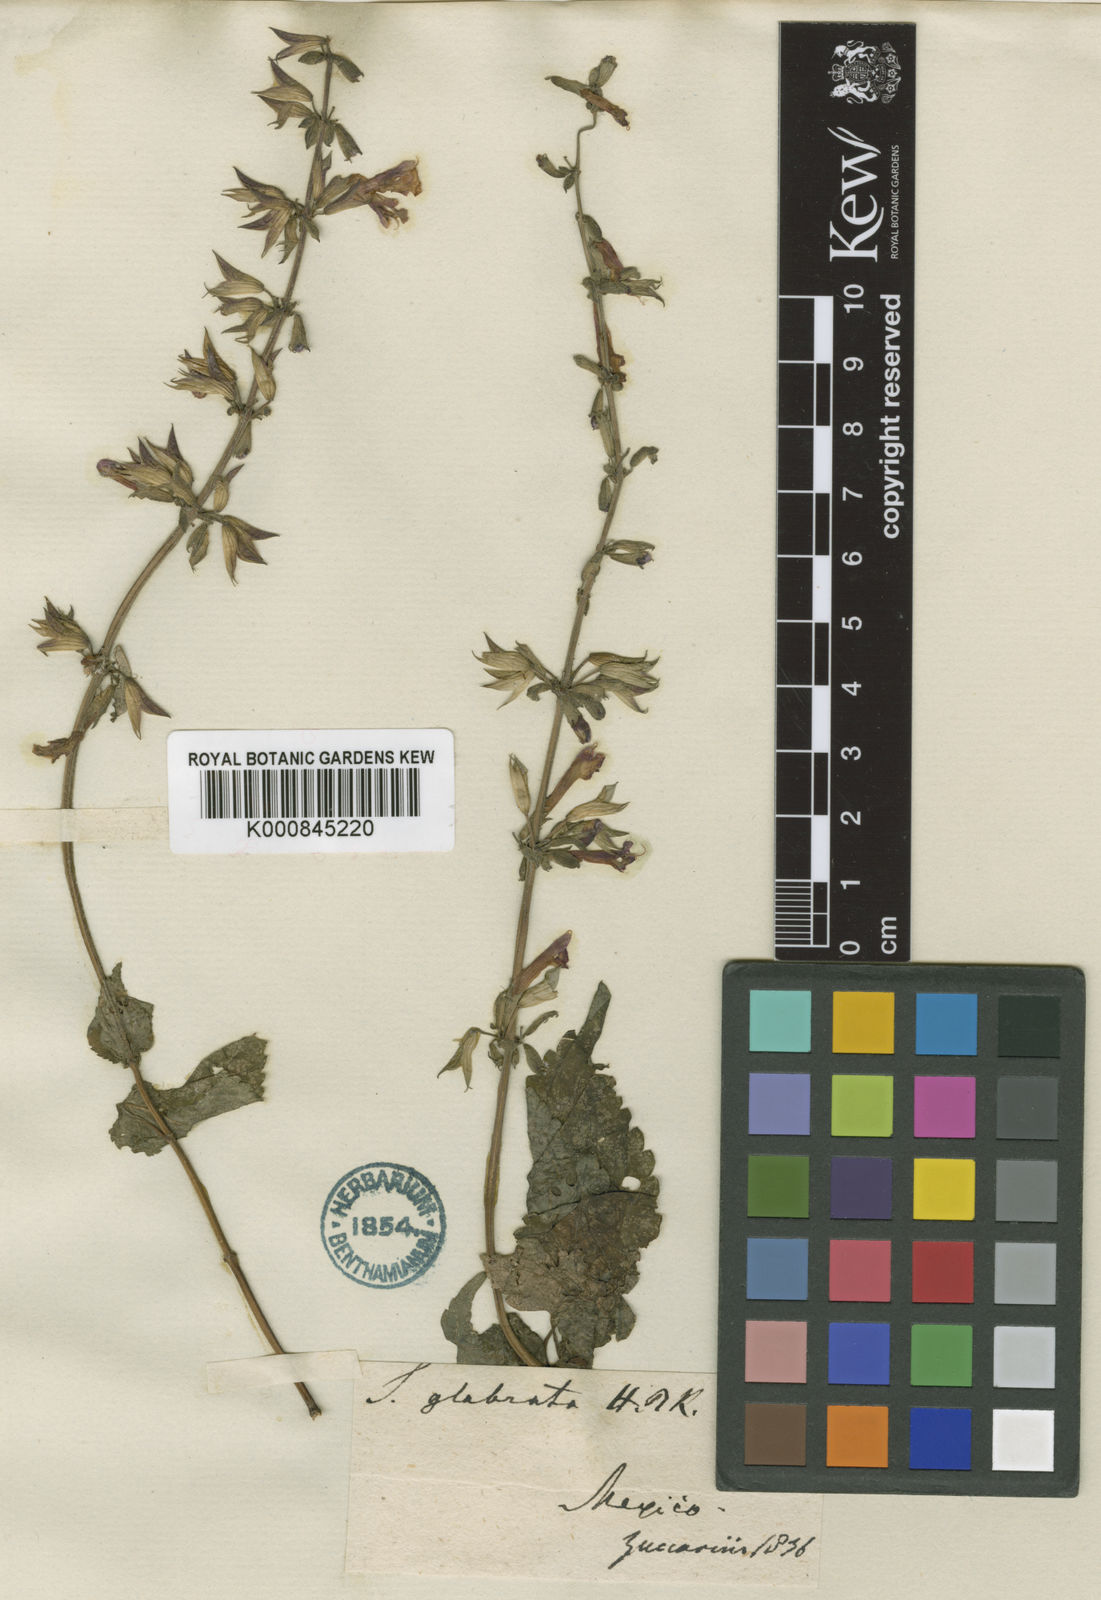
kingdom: Plantae
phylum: Tracheophyta
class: Magnoliopsida
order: Lamiales
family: Lamiaceae
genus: Salvia
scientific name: Salvia
